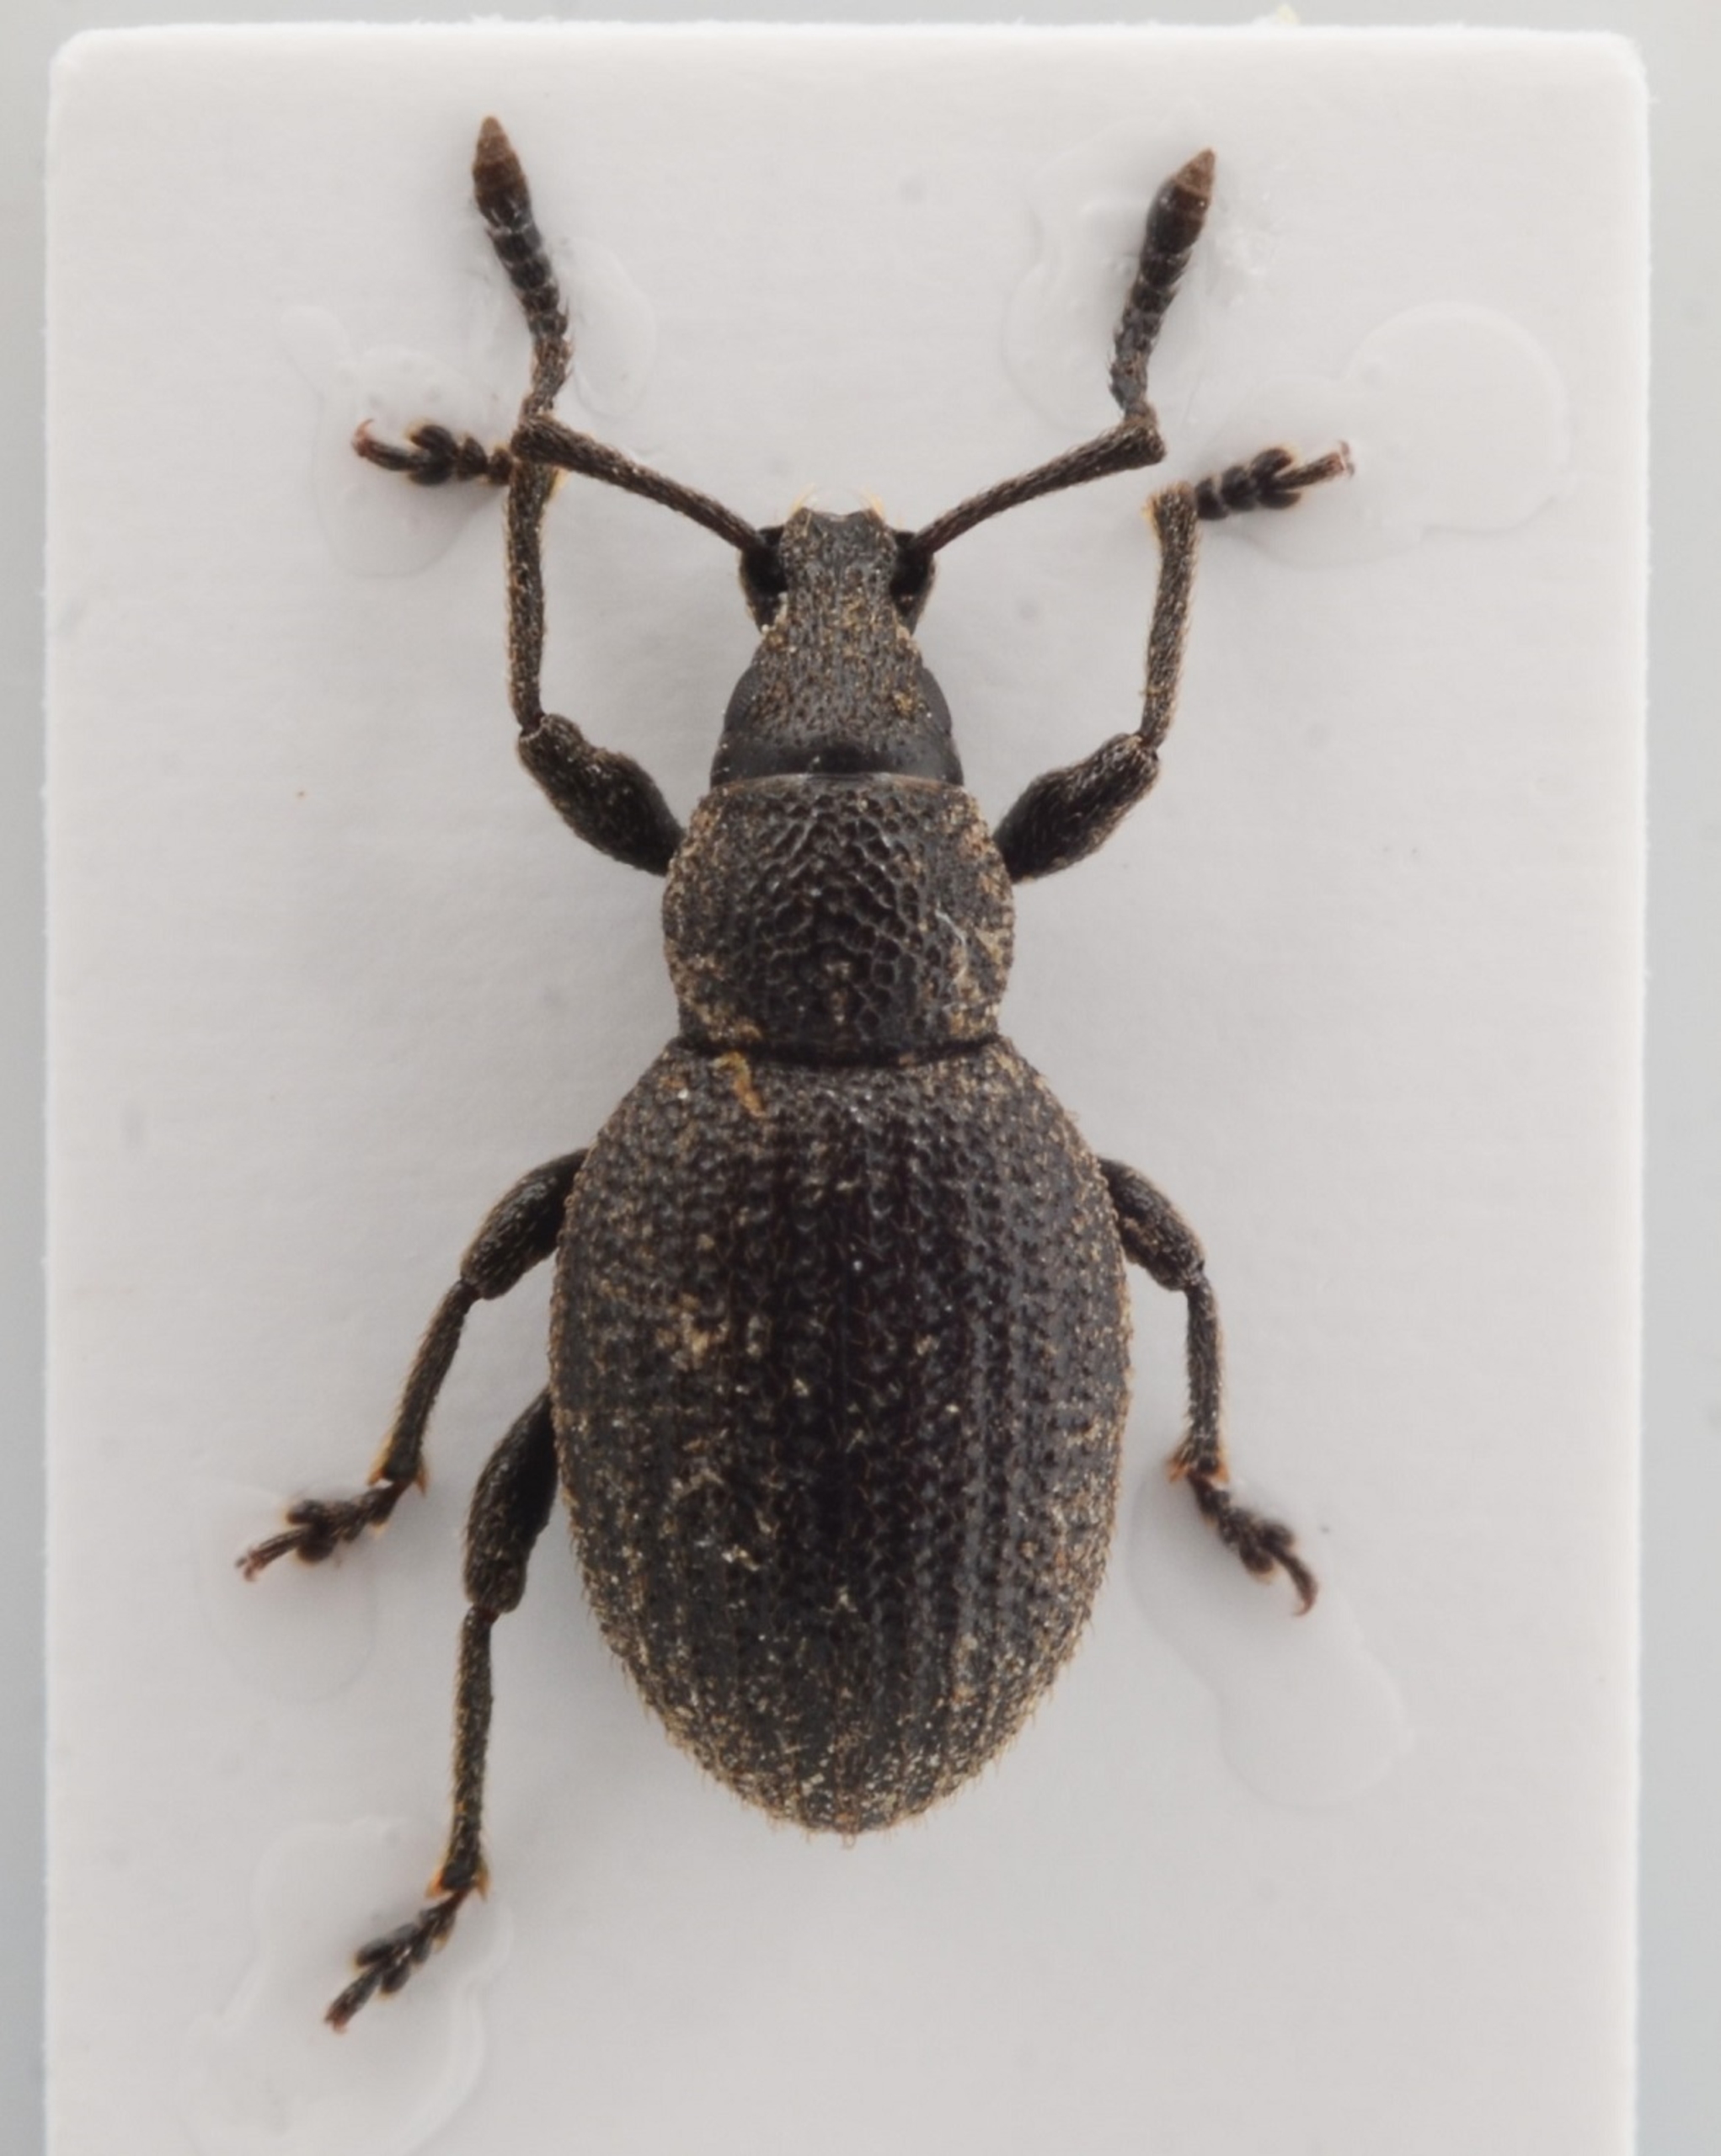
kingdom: Animalia
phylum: Arthropoda
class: Insecta
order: Coleoptera
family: Curculionidae
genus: Otiorhynchus
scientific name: Otiorhynchus rugifrons
